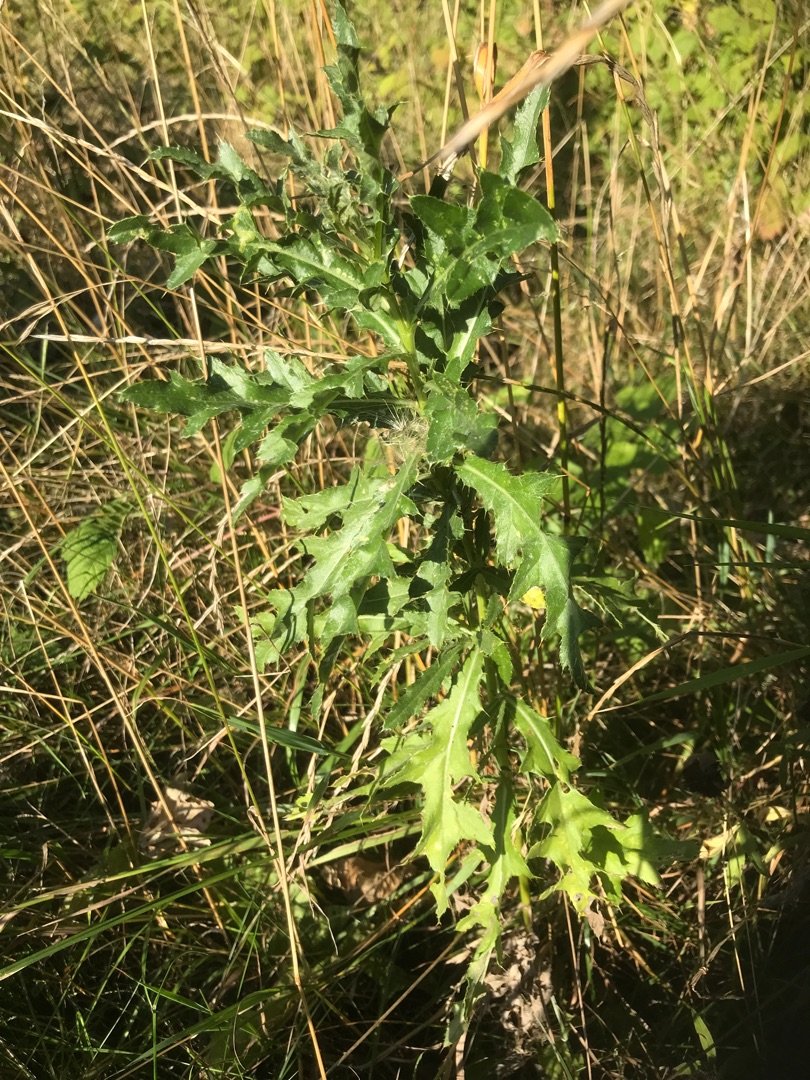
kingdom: Plantae
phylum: Tracheophyta
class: Magnoliopsida
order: Asterales
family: Asteraceae
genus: Cirsium
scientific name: Cirsium arvense
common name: Ager-tidsel
